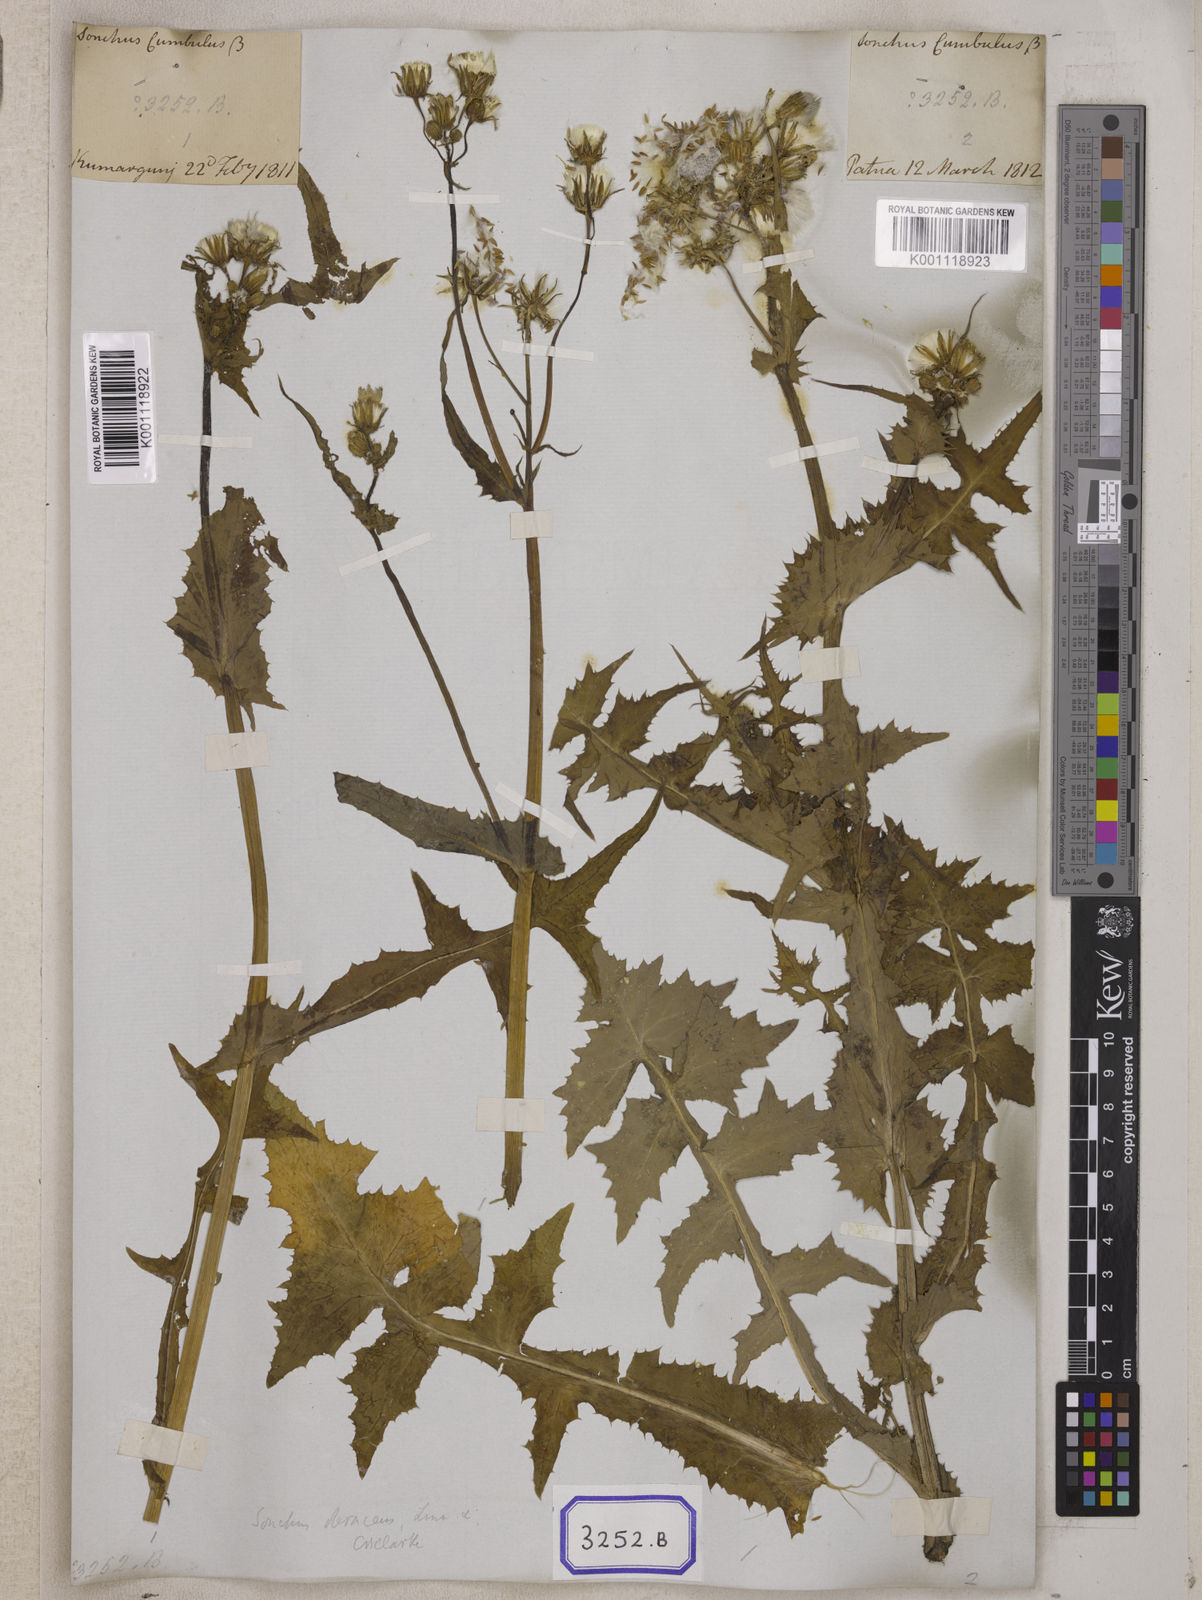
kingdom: Plantae
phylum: Tracheophyta
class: Magnoliopsida
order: Asterales
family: Asteraceae
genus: Sonchus
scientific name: Sonchus
